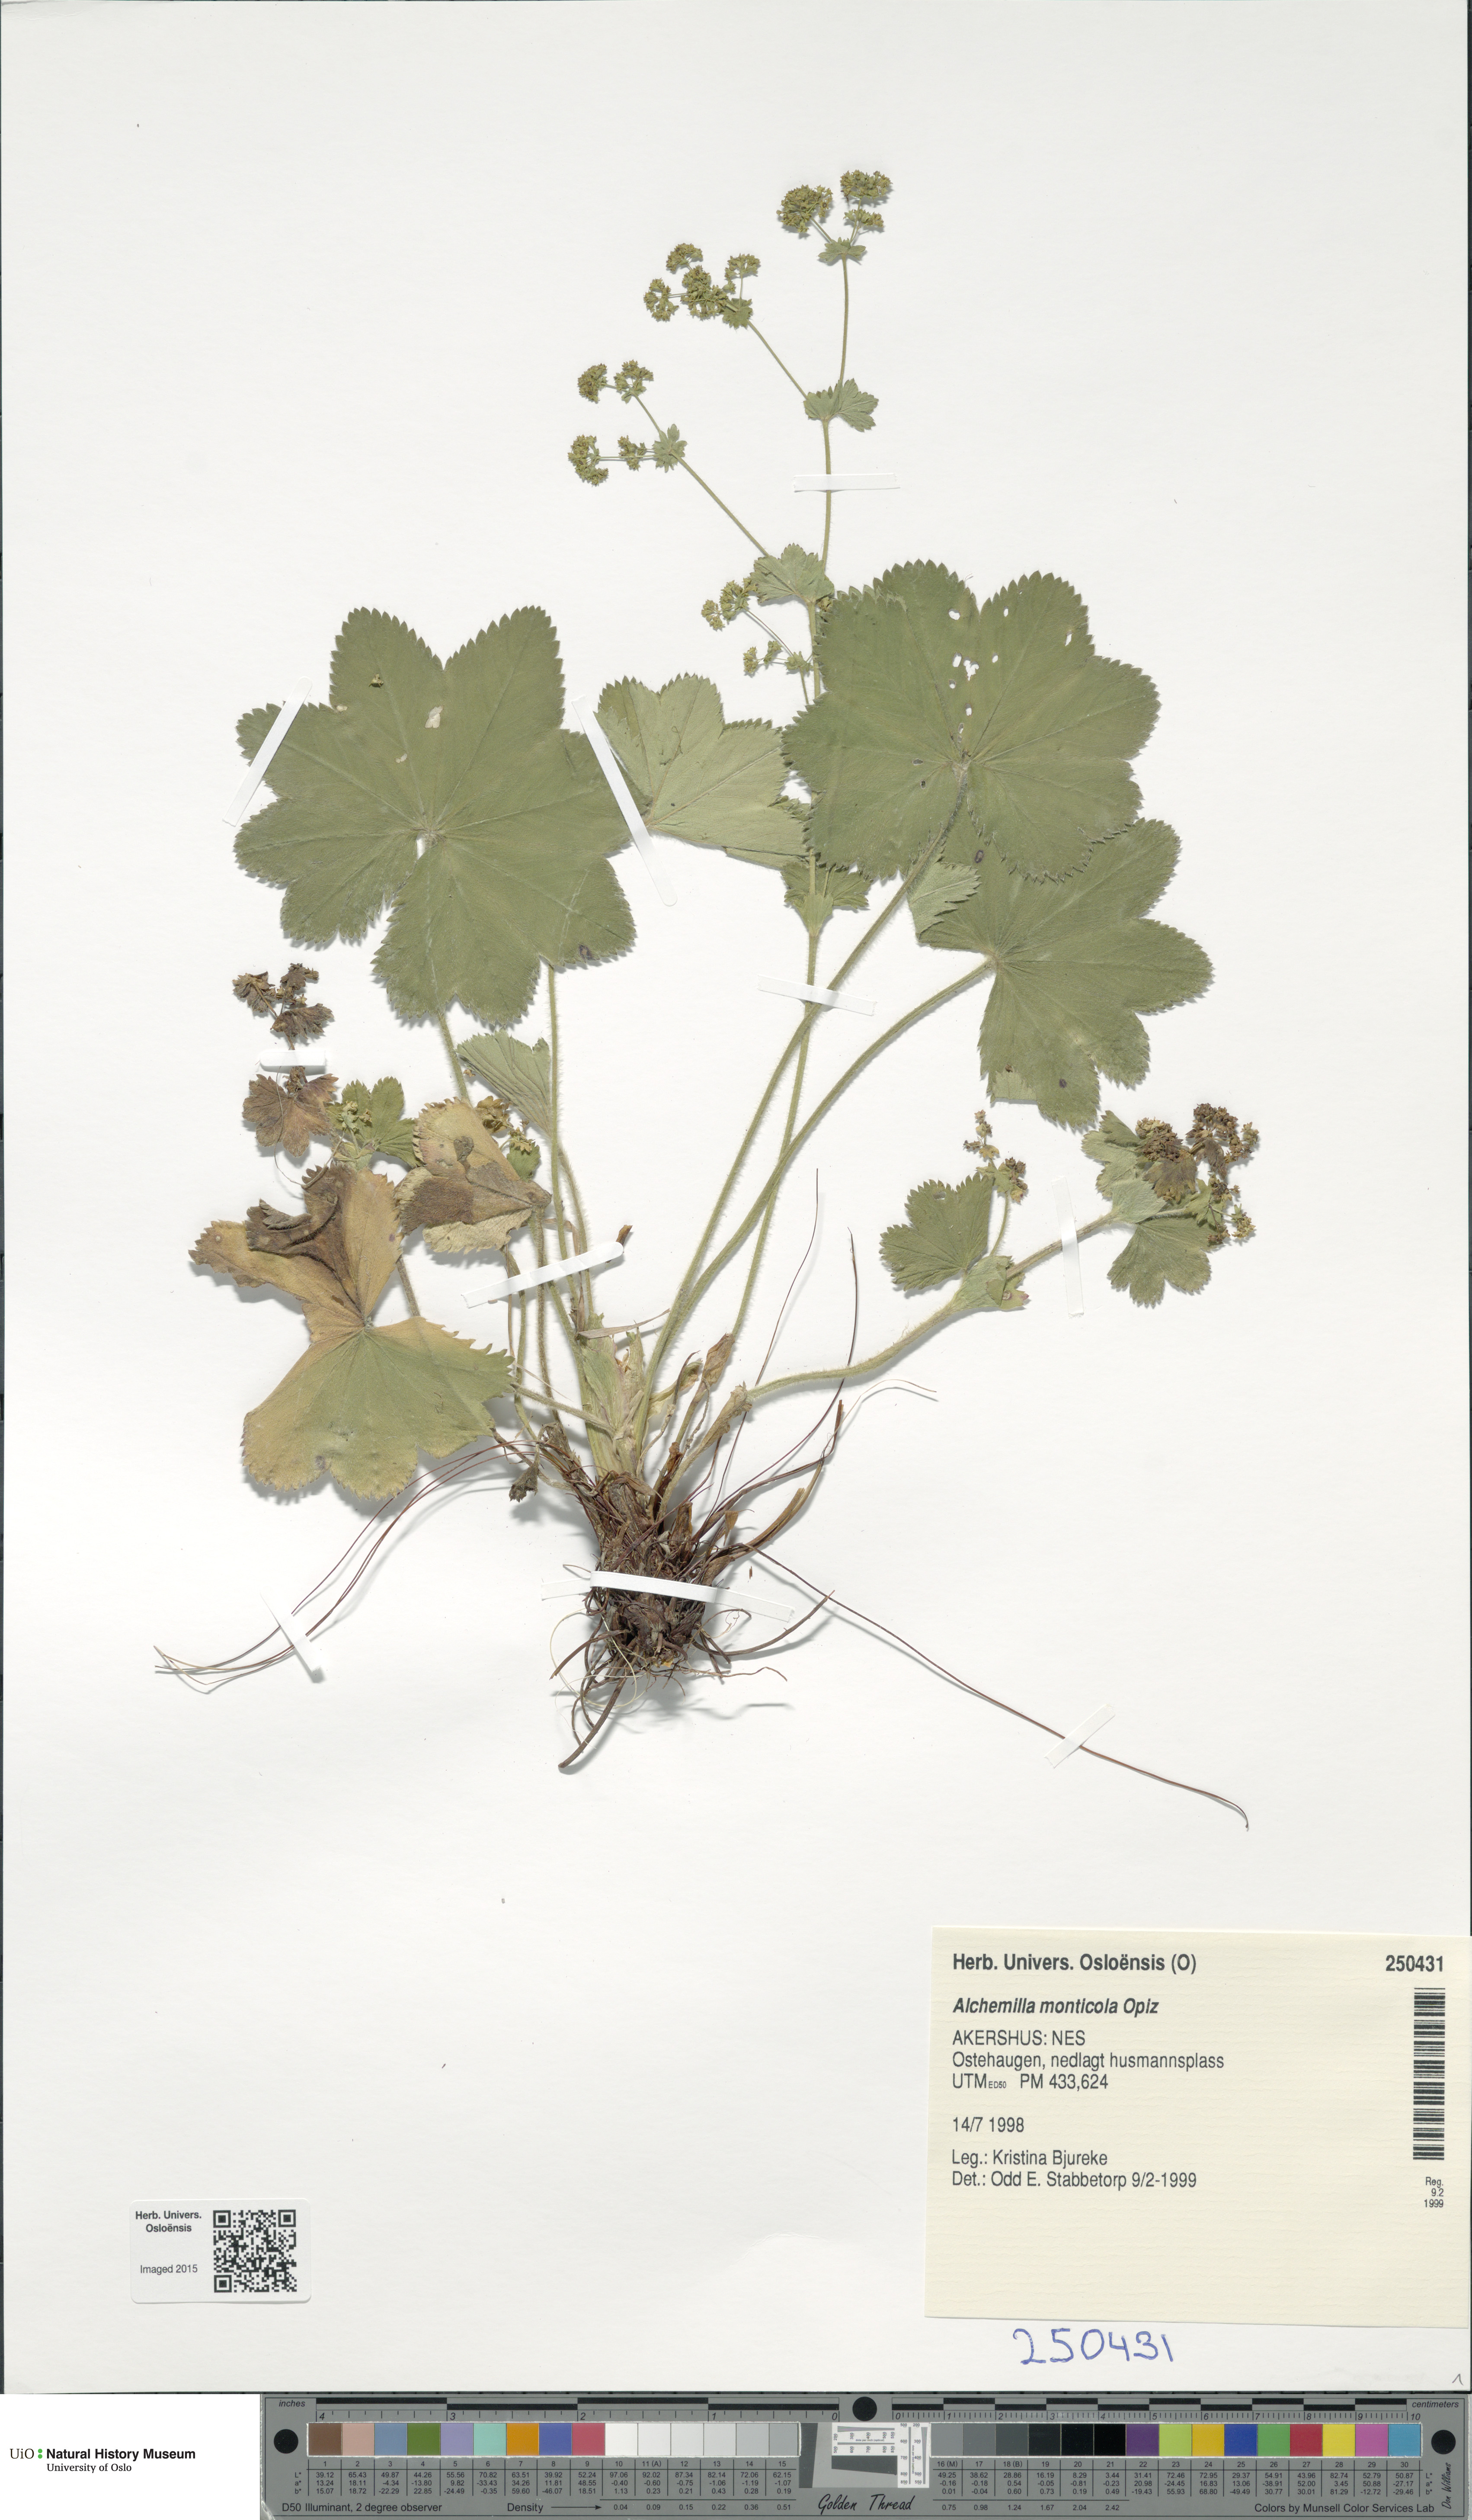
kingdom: Plantae
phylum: Tracheophyta
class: Magnoliopsida
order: Rosales
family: Rosaceae
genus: Alchemilla
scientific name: Alchemilla monticola
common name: Hairy lady's mantle
